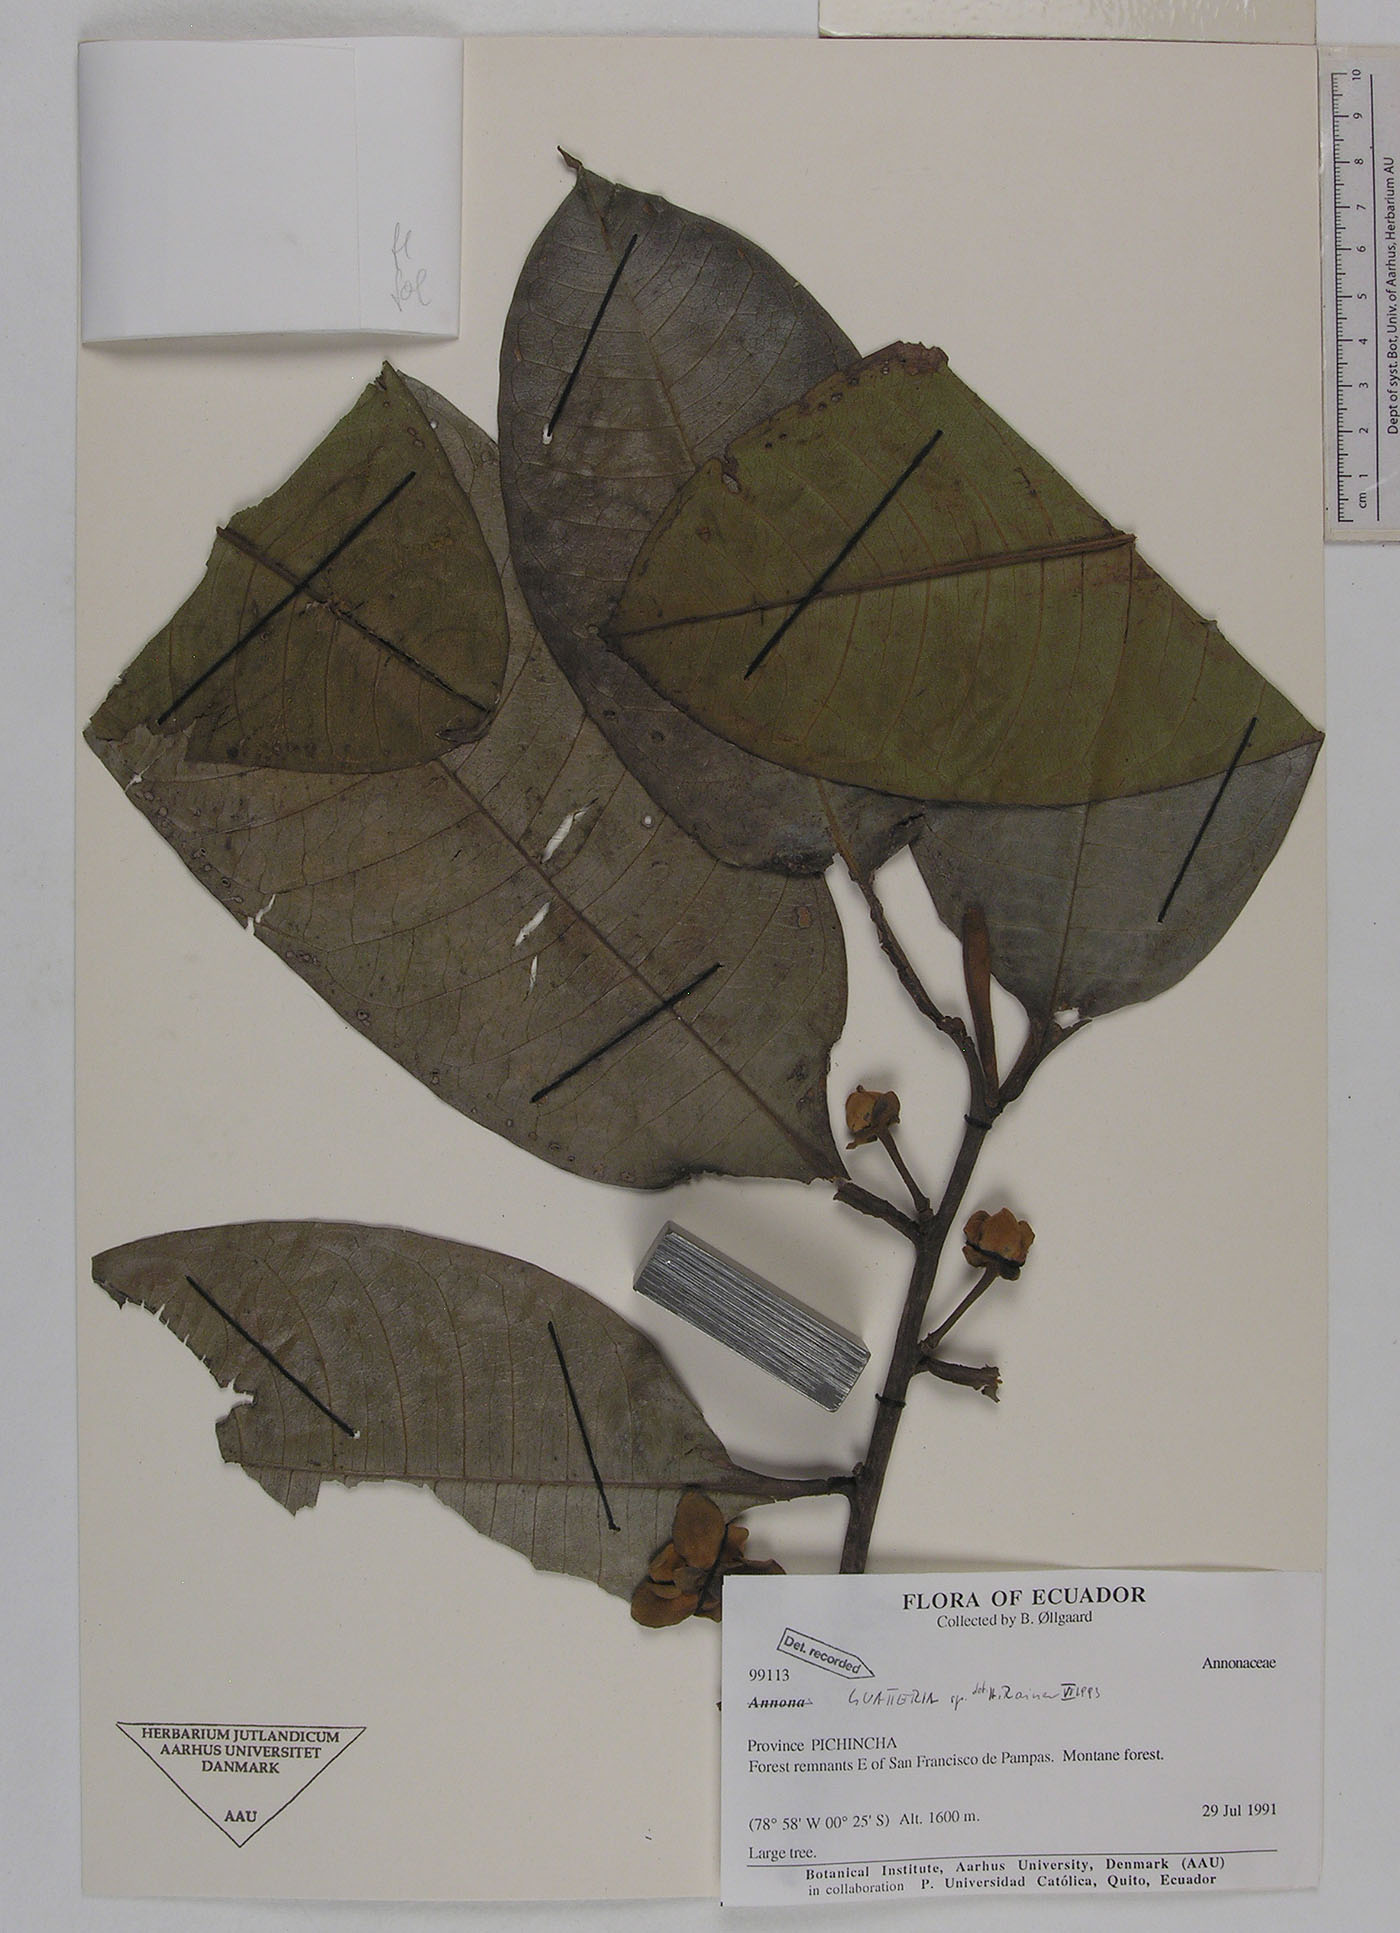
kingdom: Plantae
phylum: Tracheophyta
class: Magnoliopsida
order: Magnoliales
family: Annonaceae
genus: Guatteria
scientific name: Guatteria crassipes
